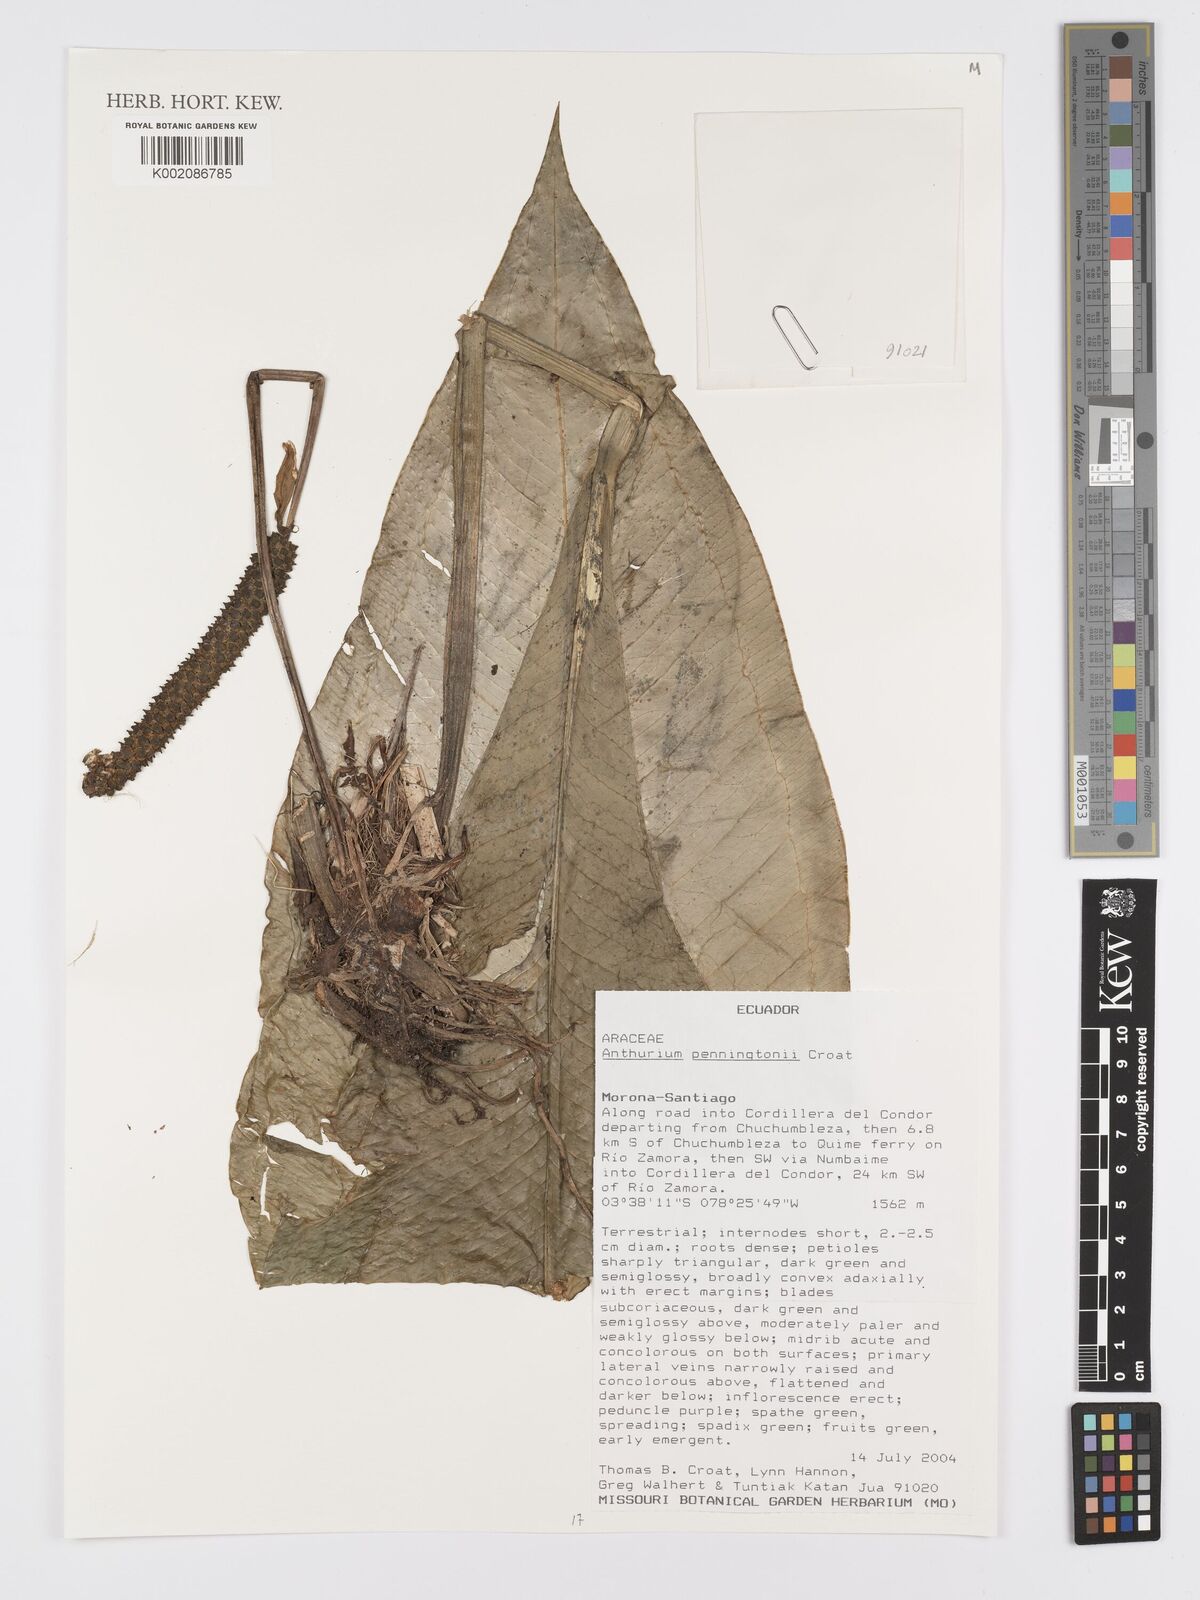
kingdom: Plantae
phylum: Tracheophyta
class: Liliopsida
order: Alismatales
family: Araceae
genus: Anthurium
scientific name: Anthurium penningtonii
